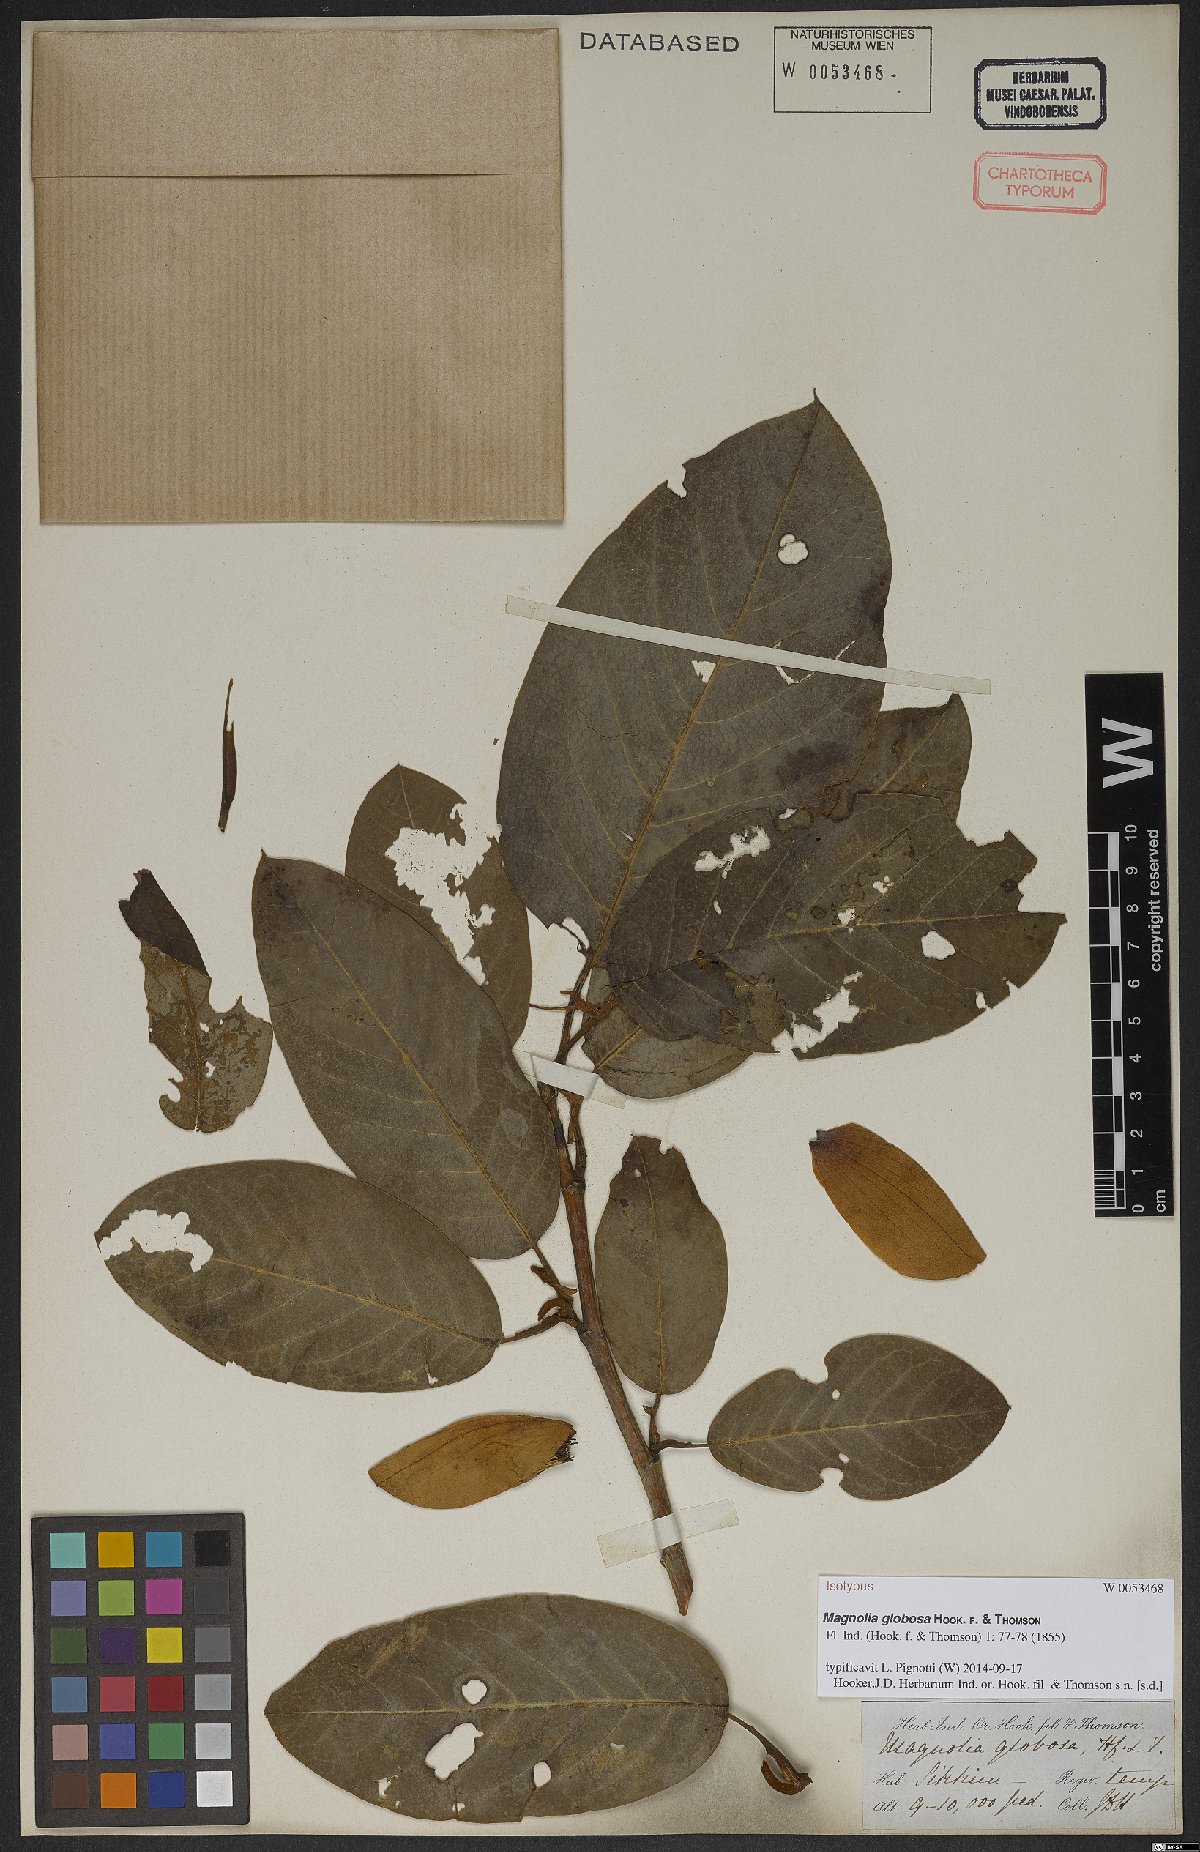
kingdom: Plantae
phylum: Tracheophyta
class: Magnoliopsida
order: Magnoliales
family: Magnoliaceae
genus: Magnolia
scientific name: Magnolia globosa
